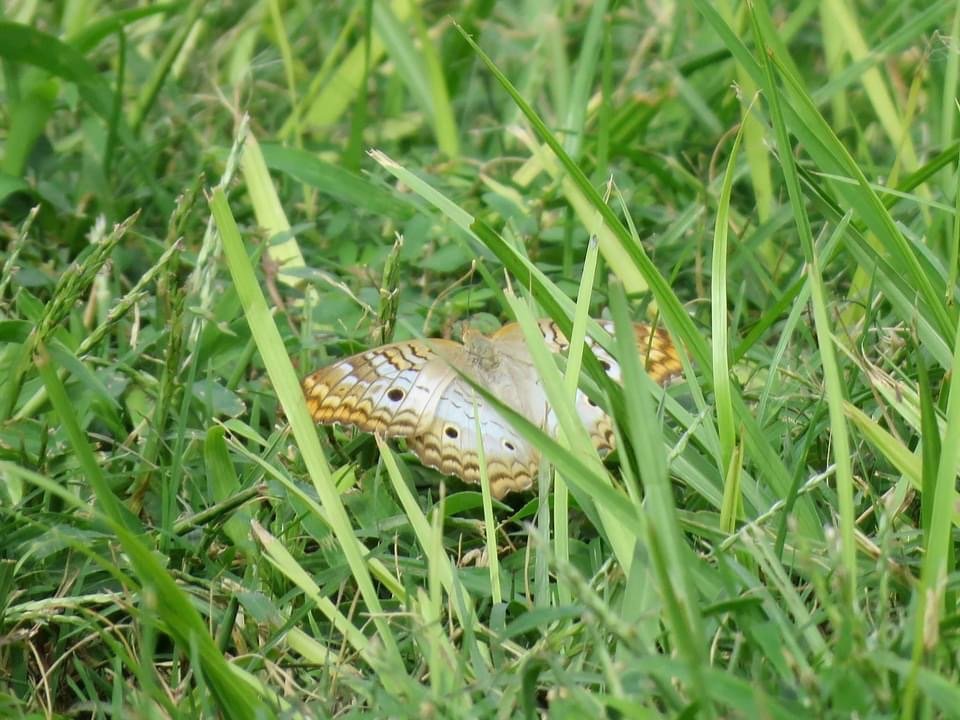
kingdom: Animalia
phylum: Arthropoda
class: Insecta
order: Lepidoptera
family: Nymphalidae
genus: Anartia
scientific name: Anartia jatrophae
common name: White Peacock
